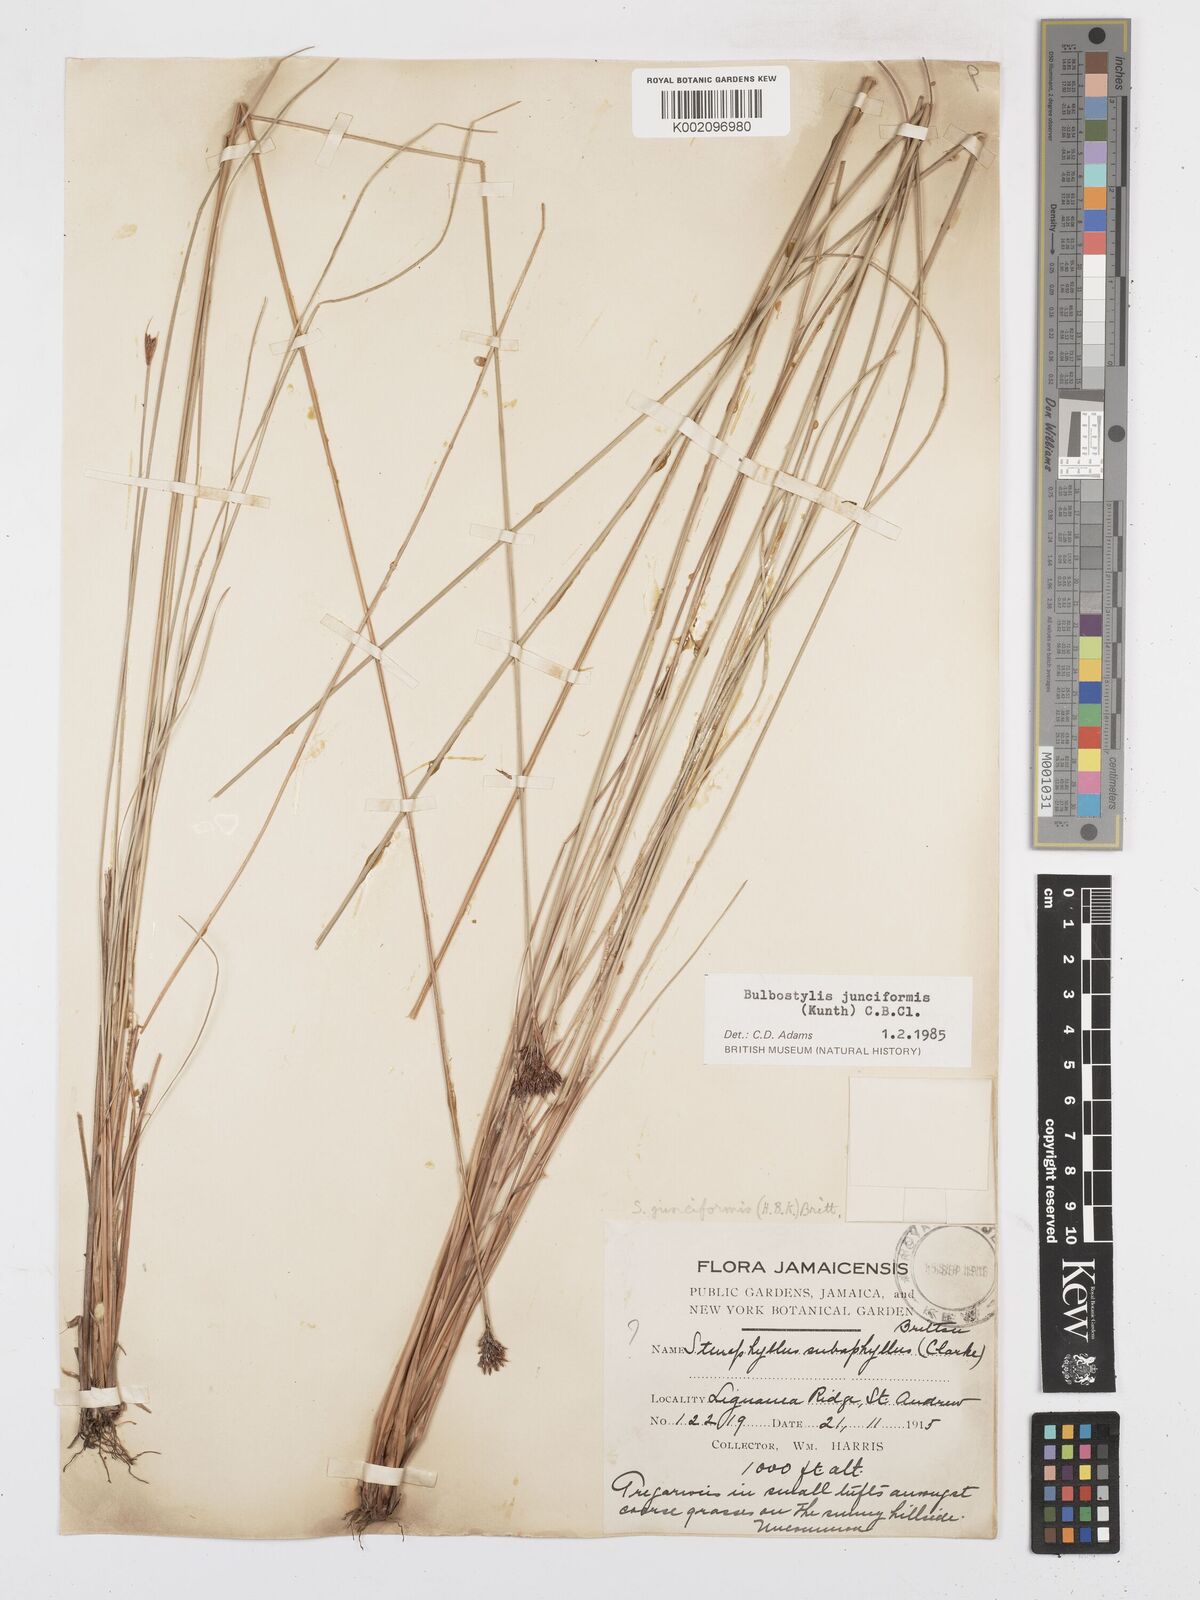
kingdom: Plantae
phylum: Tracheophyta
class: Liliopsida
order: Poales
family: Cyperaceae
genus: Bulbostylis
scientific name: Bulbostylis junciformis
